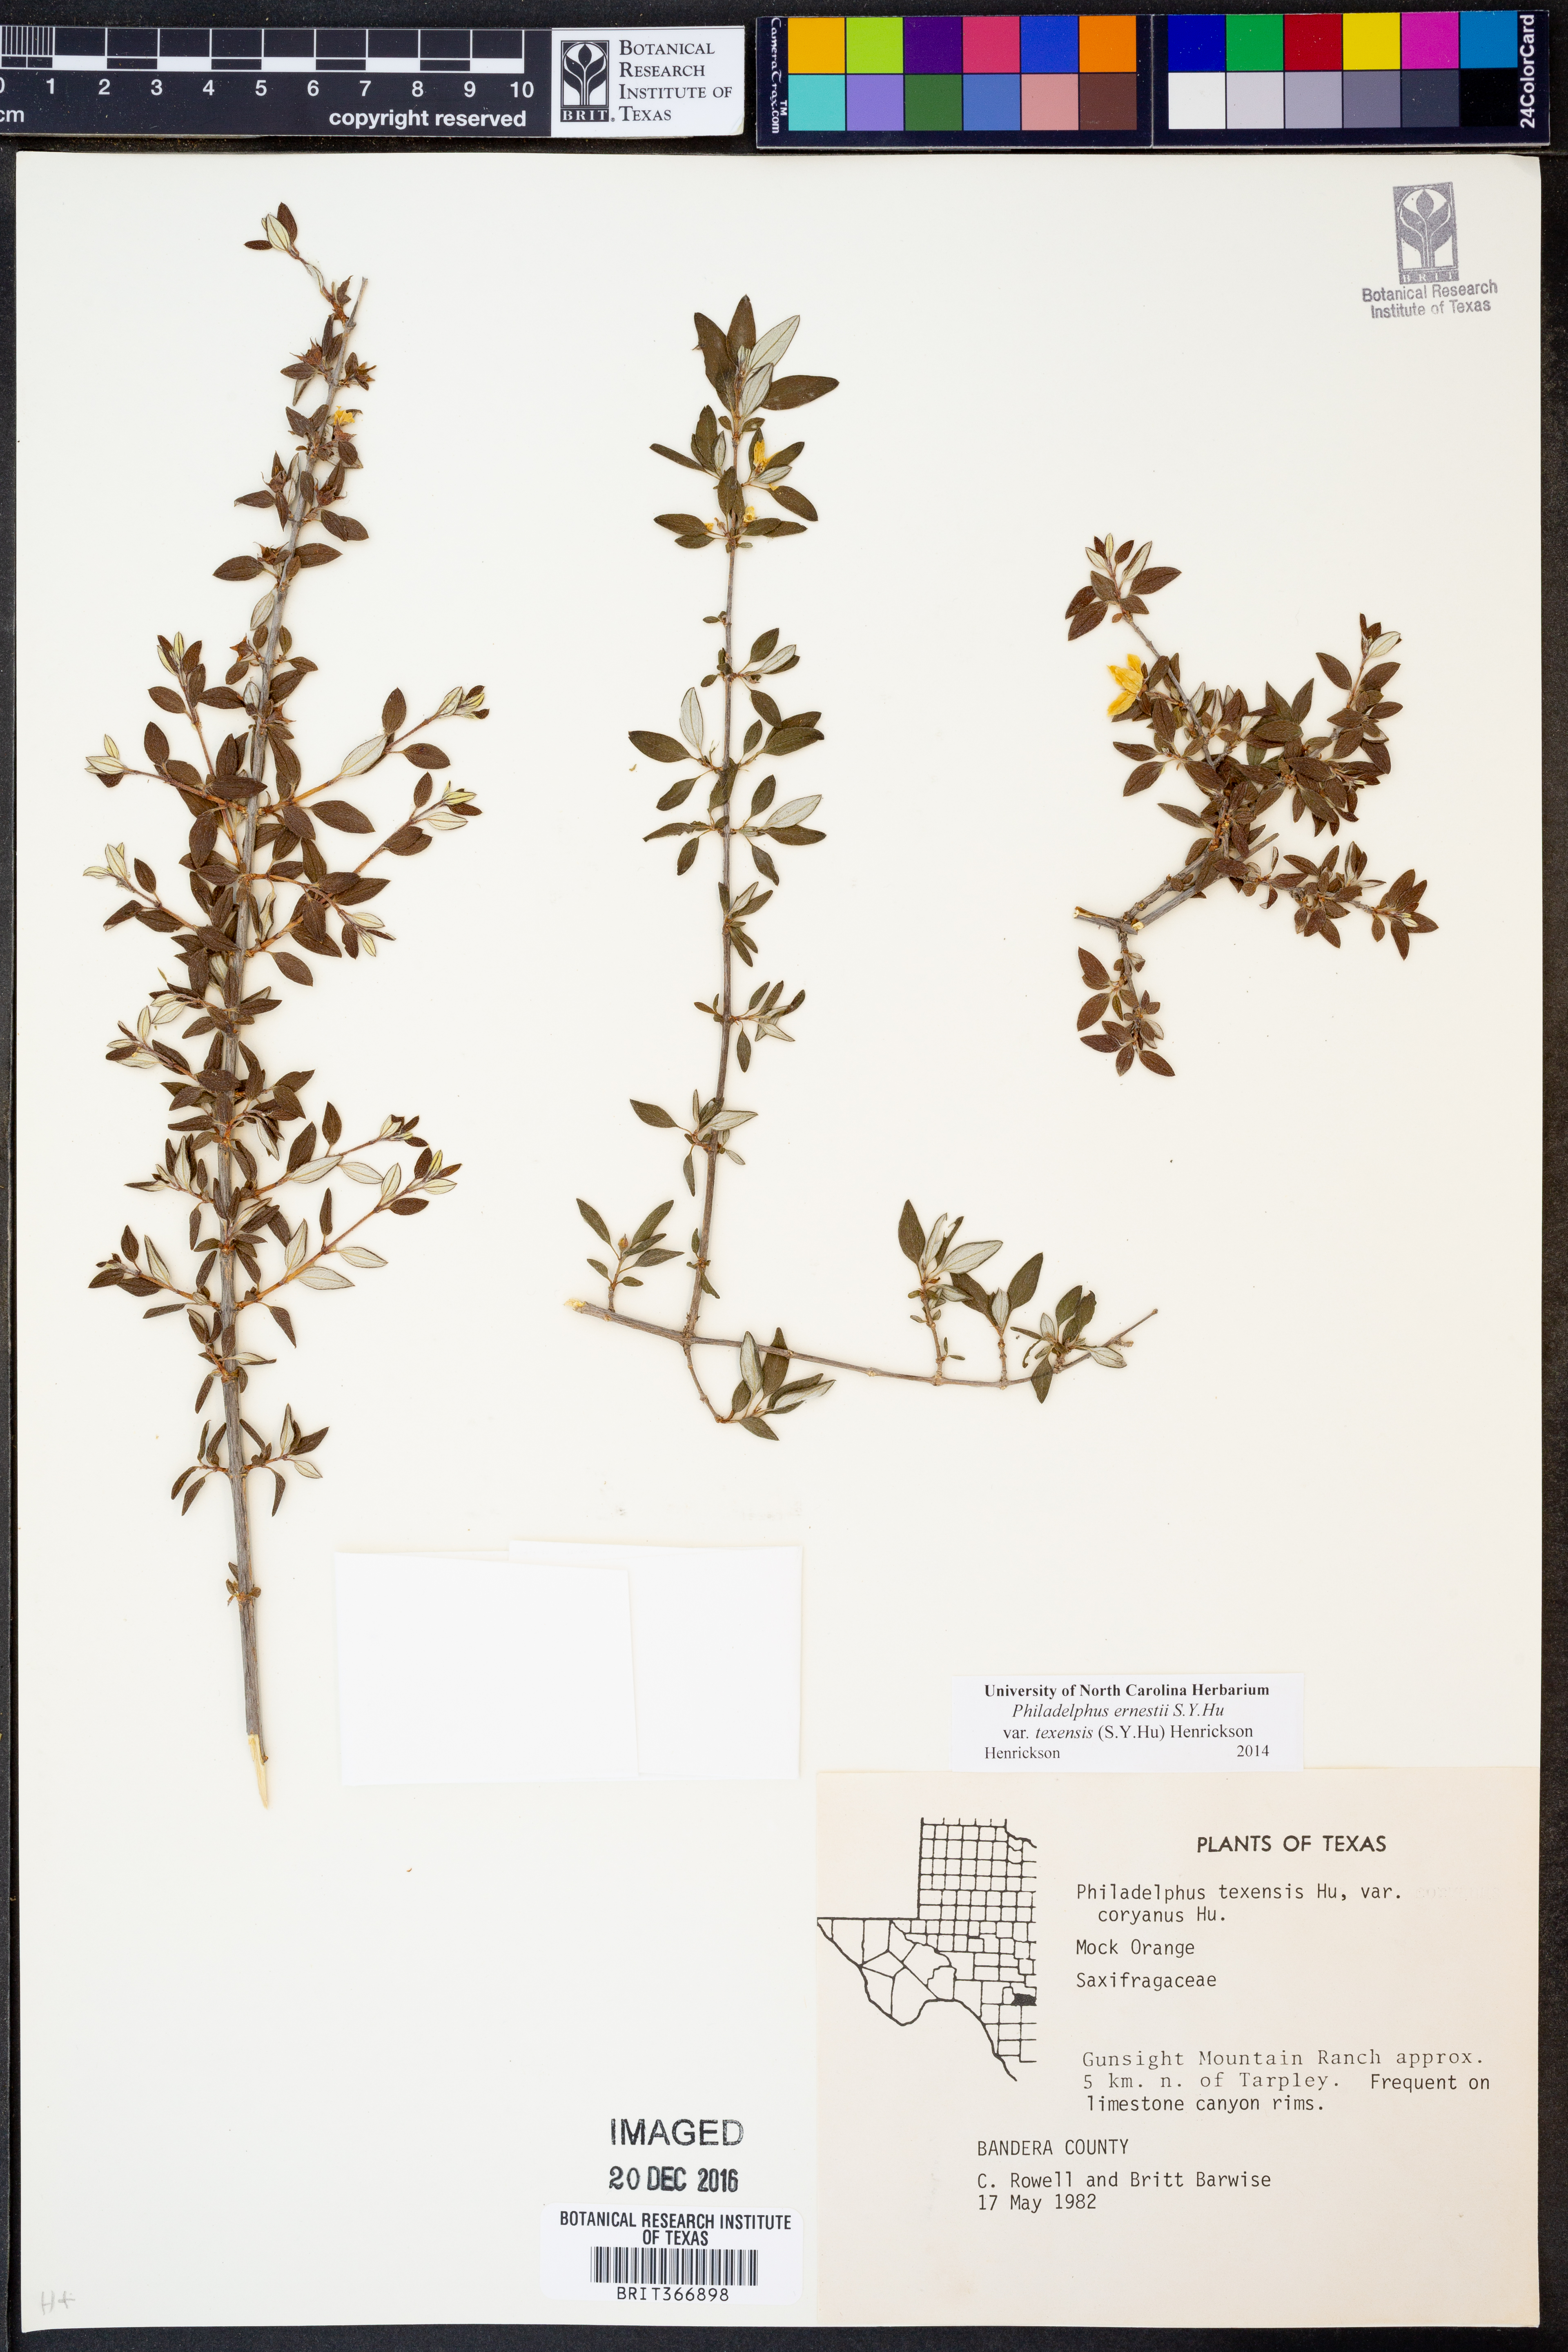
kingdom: Plantae
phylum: Tracheophyta
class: Magnoliopsida
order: Cornales
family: Hydrangeaceae
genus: Philadelphus
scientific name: Philadelphus texensis
